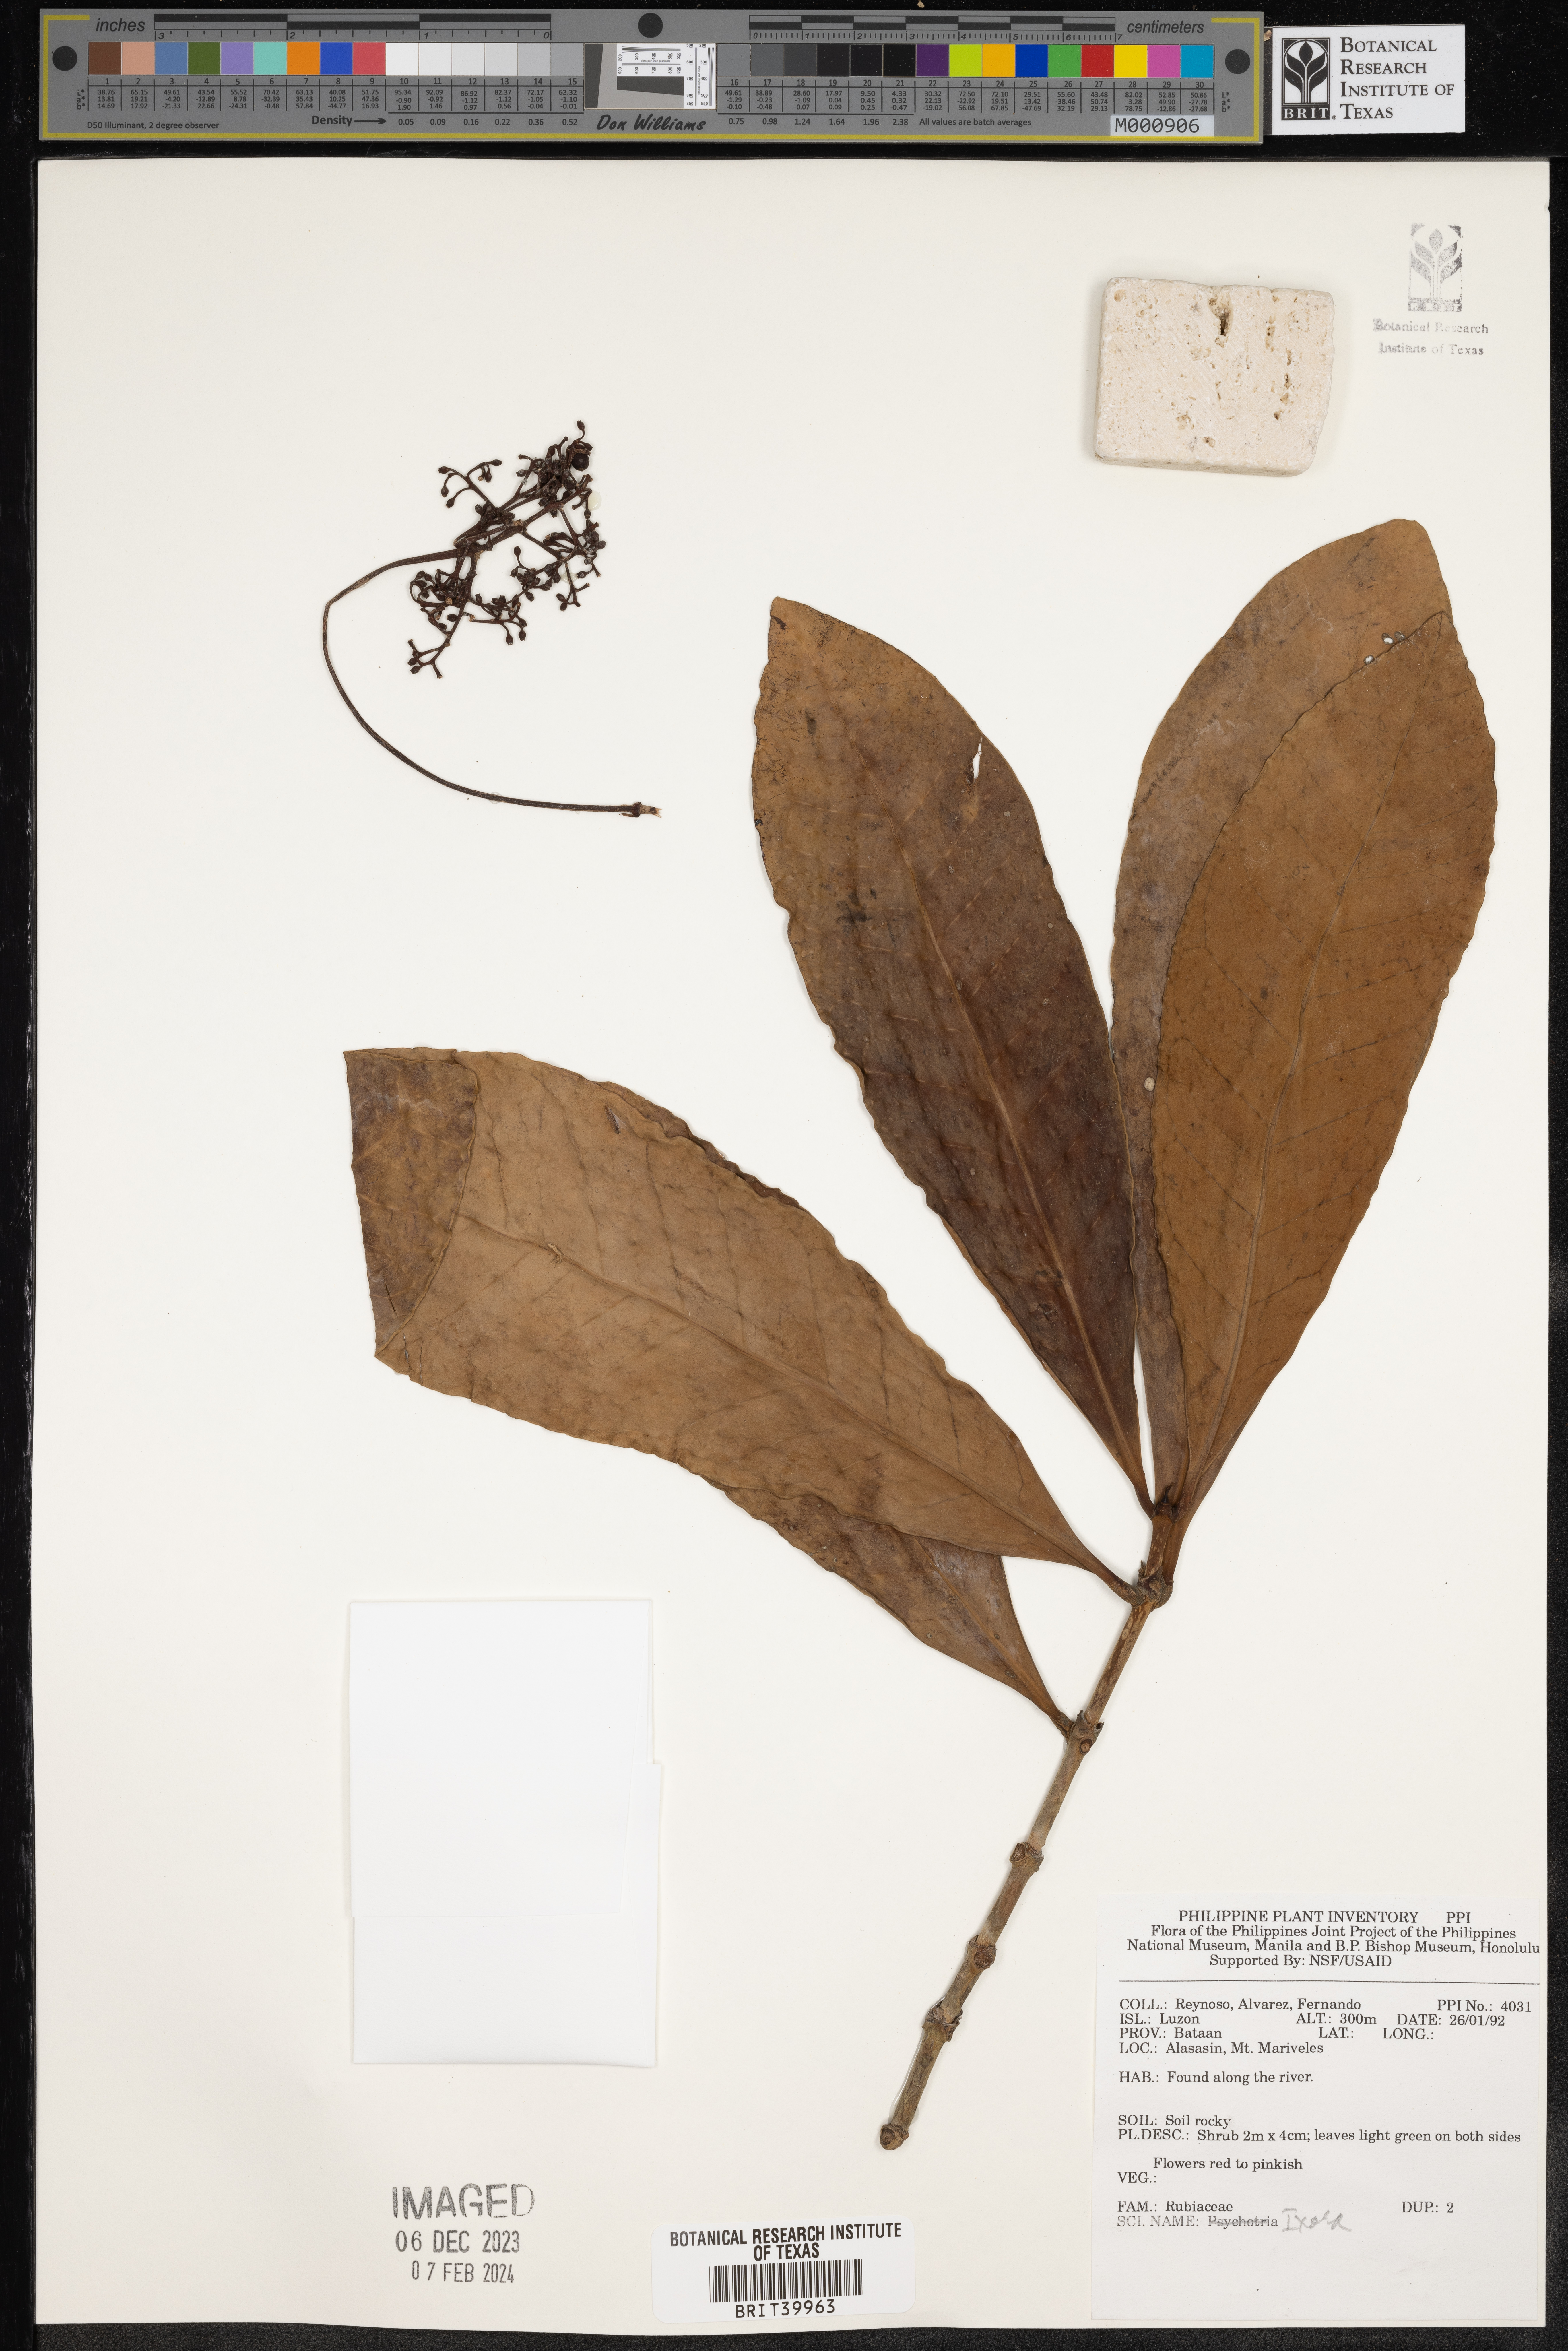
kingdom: Plantae
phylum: Tracheophyta
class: Magnoliopsida
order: Gentianales
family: Rubiaceae
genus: Ixora
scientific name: Ixora
